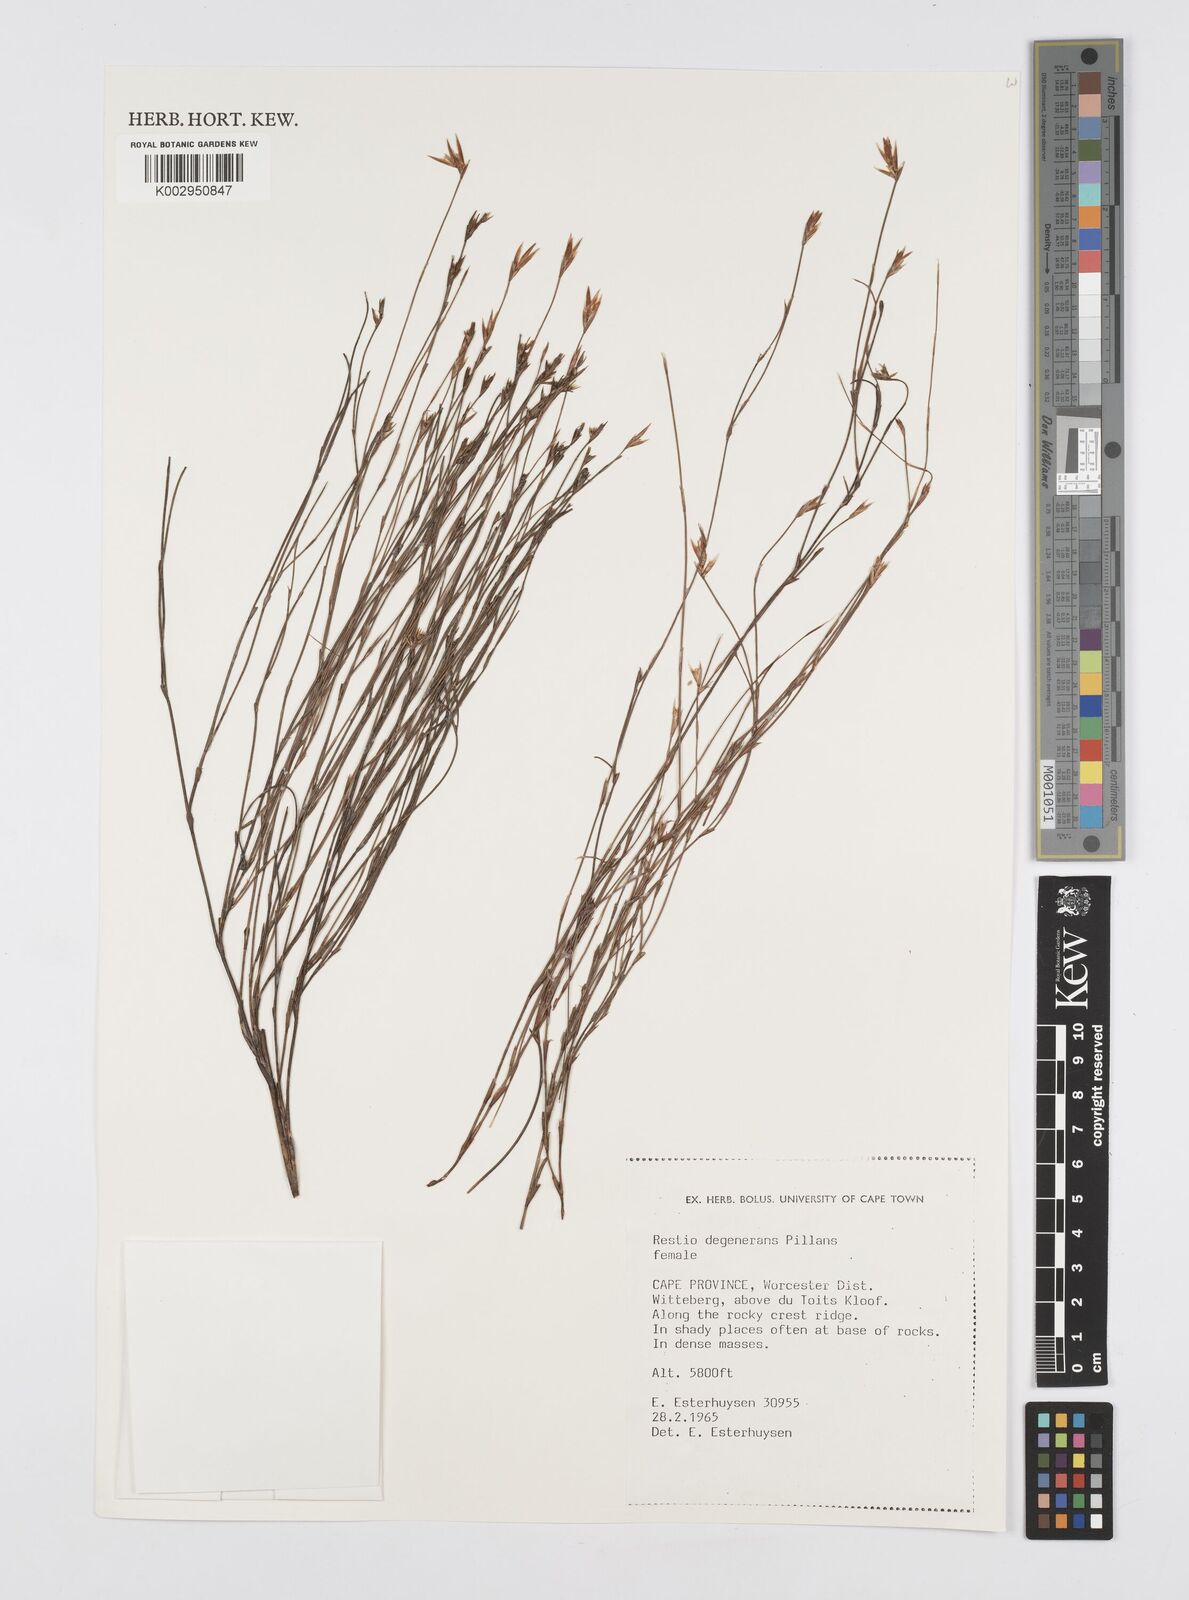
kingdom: Plantae
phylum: Tracheophyta
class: Liliopsida
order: Poales
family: Restionaceae
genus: Restio
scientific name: Restio degenerans
